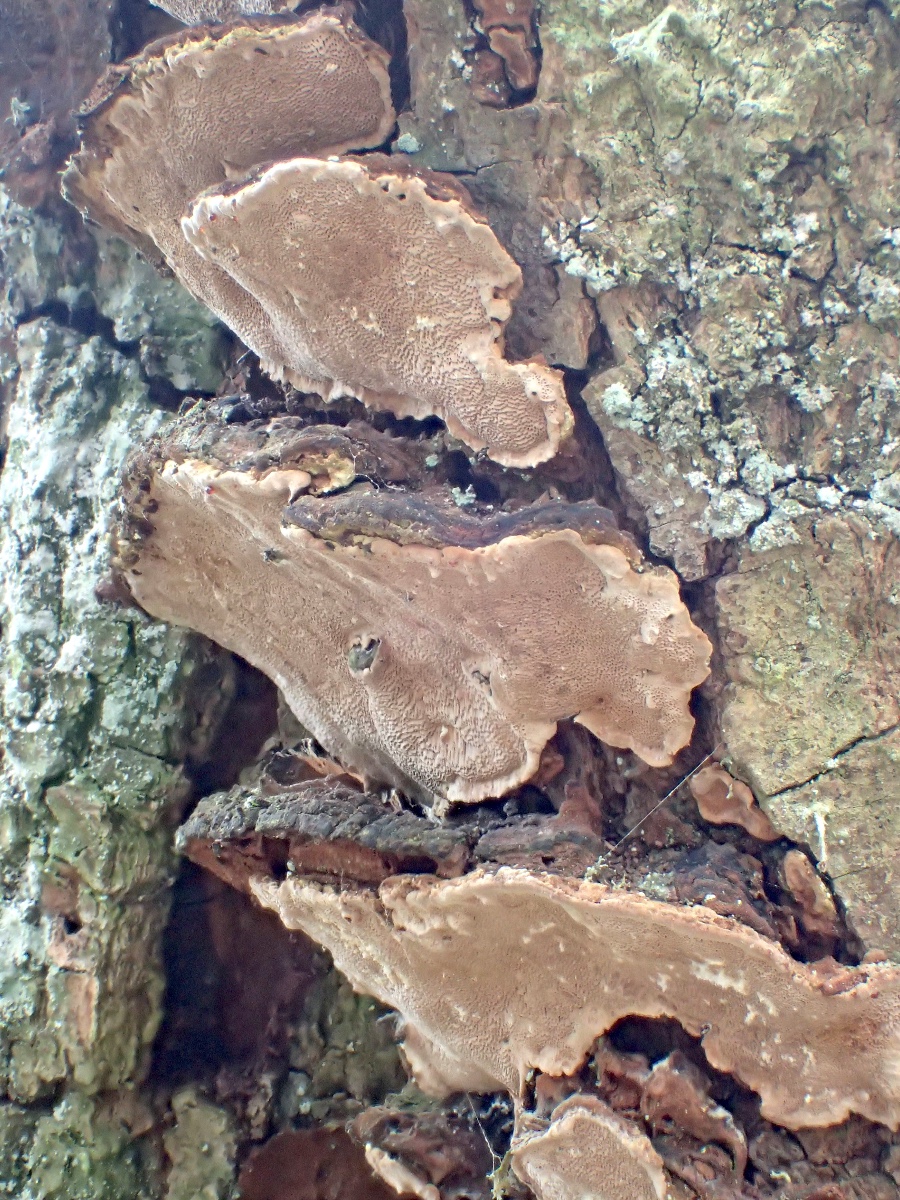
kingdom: Fungi
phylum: Basidiomycota
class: Agaricomycetes
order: Hymenochaetales
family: Hymenochaetaceae
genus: Phellinopsis
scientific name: Phellinopsis conchata
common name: pile-ildporesvamp
